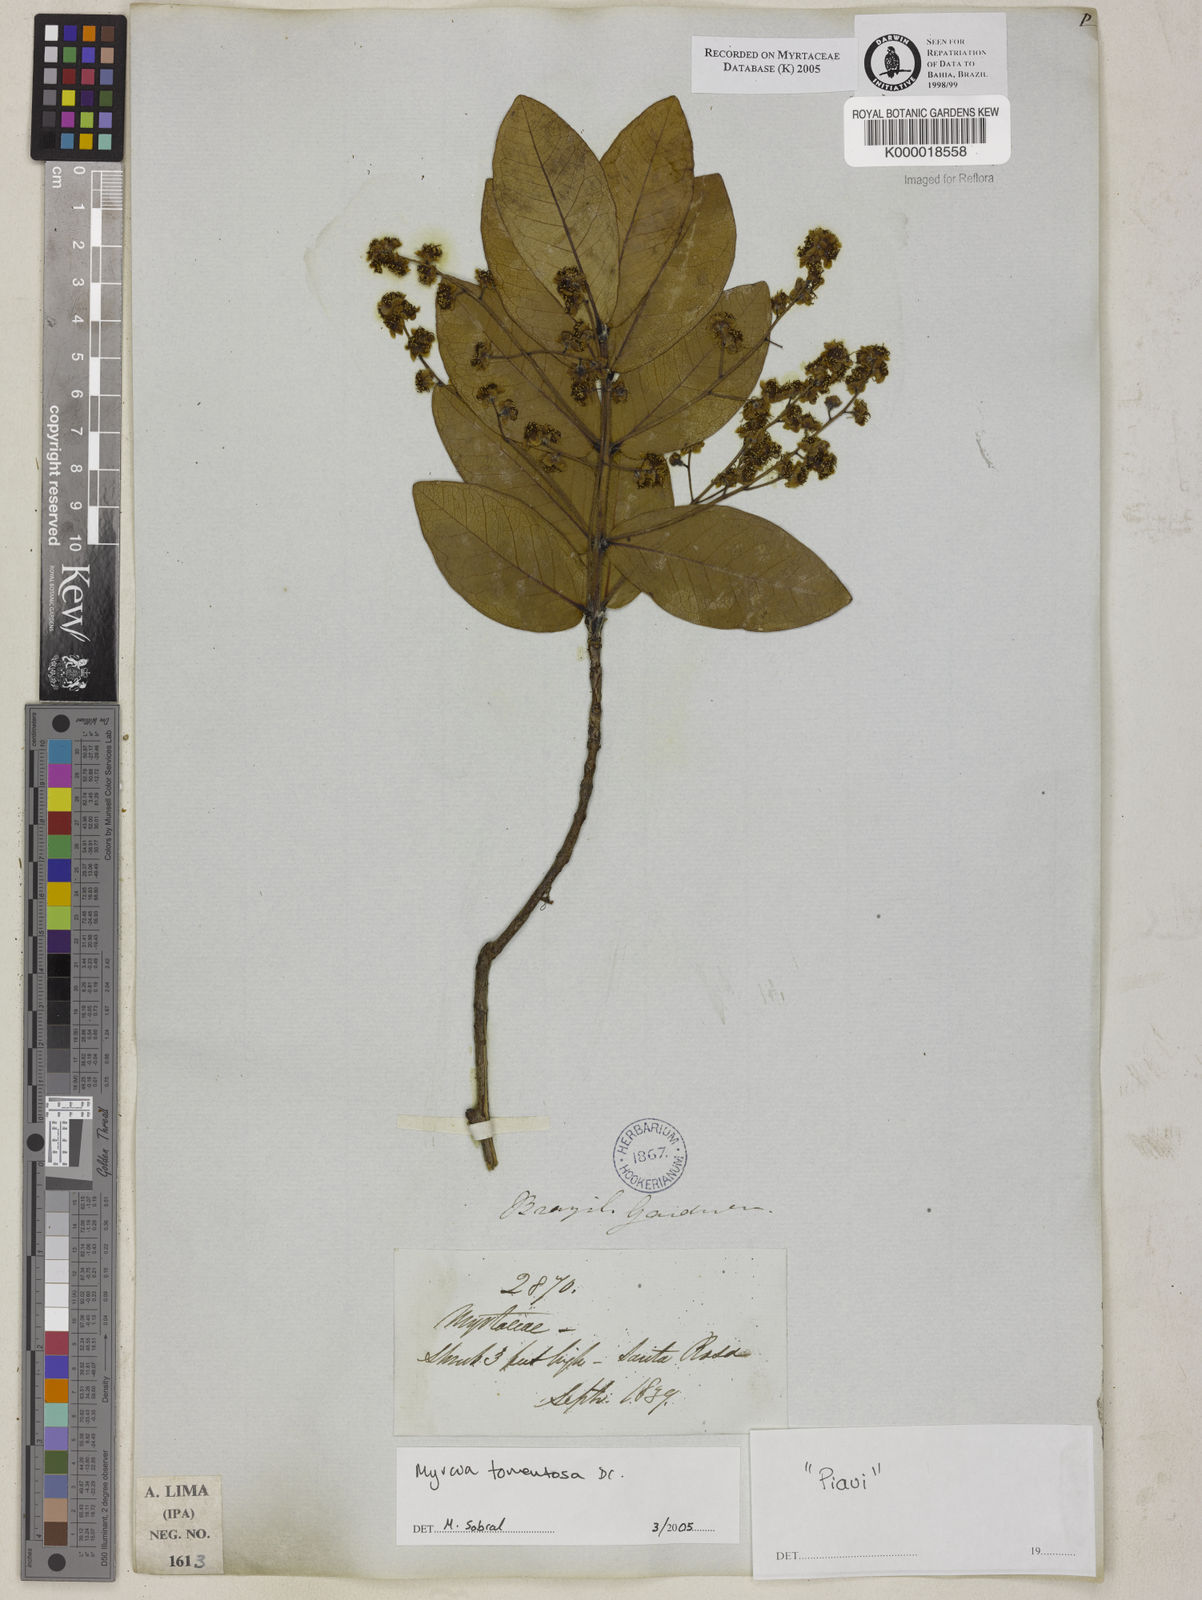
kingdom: Plantae
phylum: Tracheophyta
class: Magnoliopsida
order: Myrtales
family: Myrtaceae
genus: Myrcia
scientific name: Myrcia
